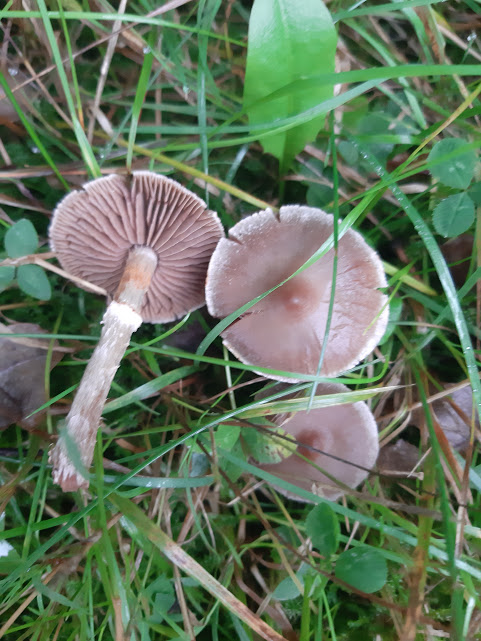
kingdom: Fungi
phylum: Basidiomycota
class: Agaricomycetes
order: Agaricales
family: Cortinariaceae
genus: Cortinarius
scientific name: Cortinarius
